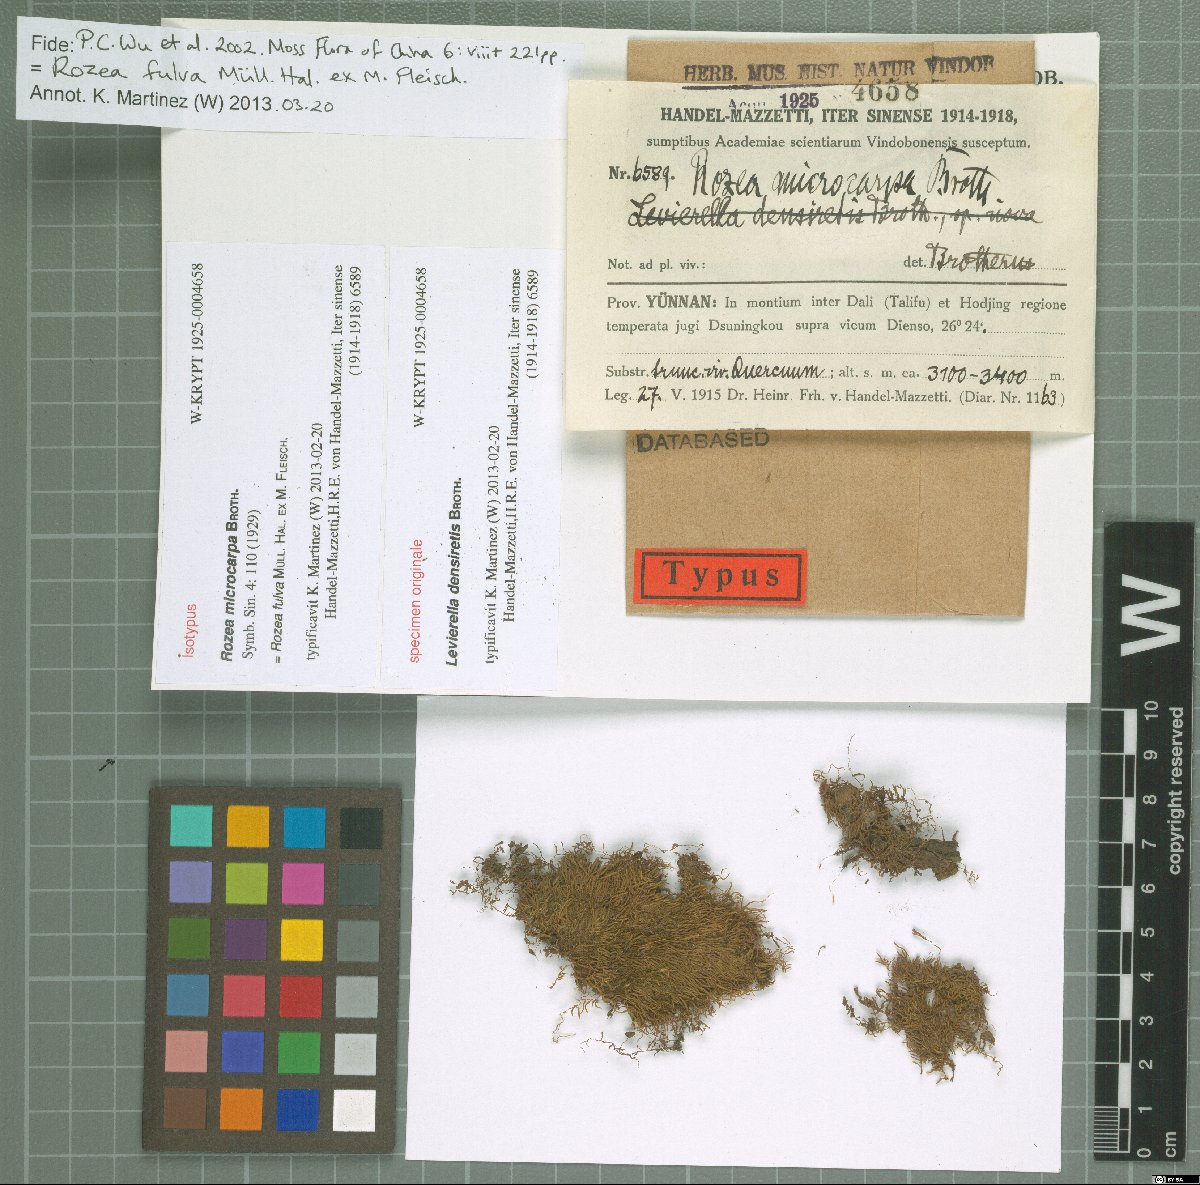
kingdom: Plantae
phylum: Bryophyta
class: Bryopsida
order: Hypnales
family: Leskeaceae
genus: Rozea
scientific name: Rozea fulva
